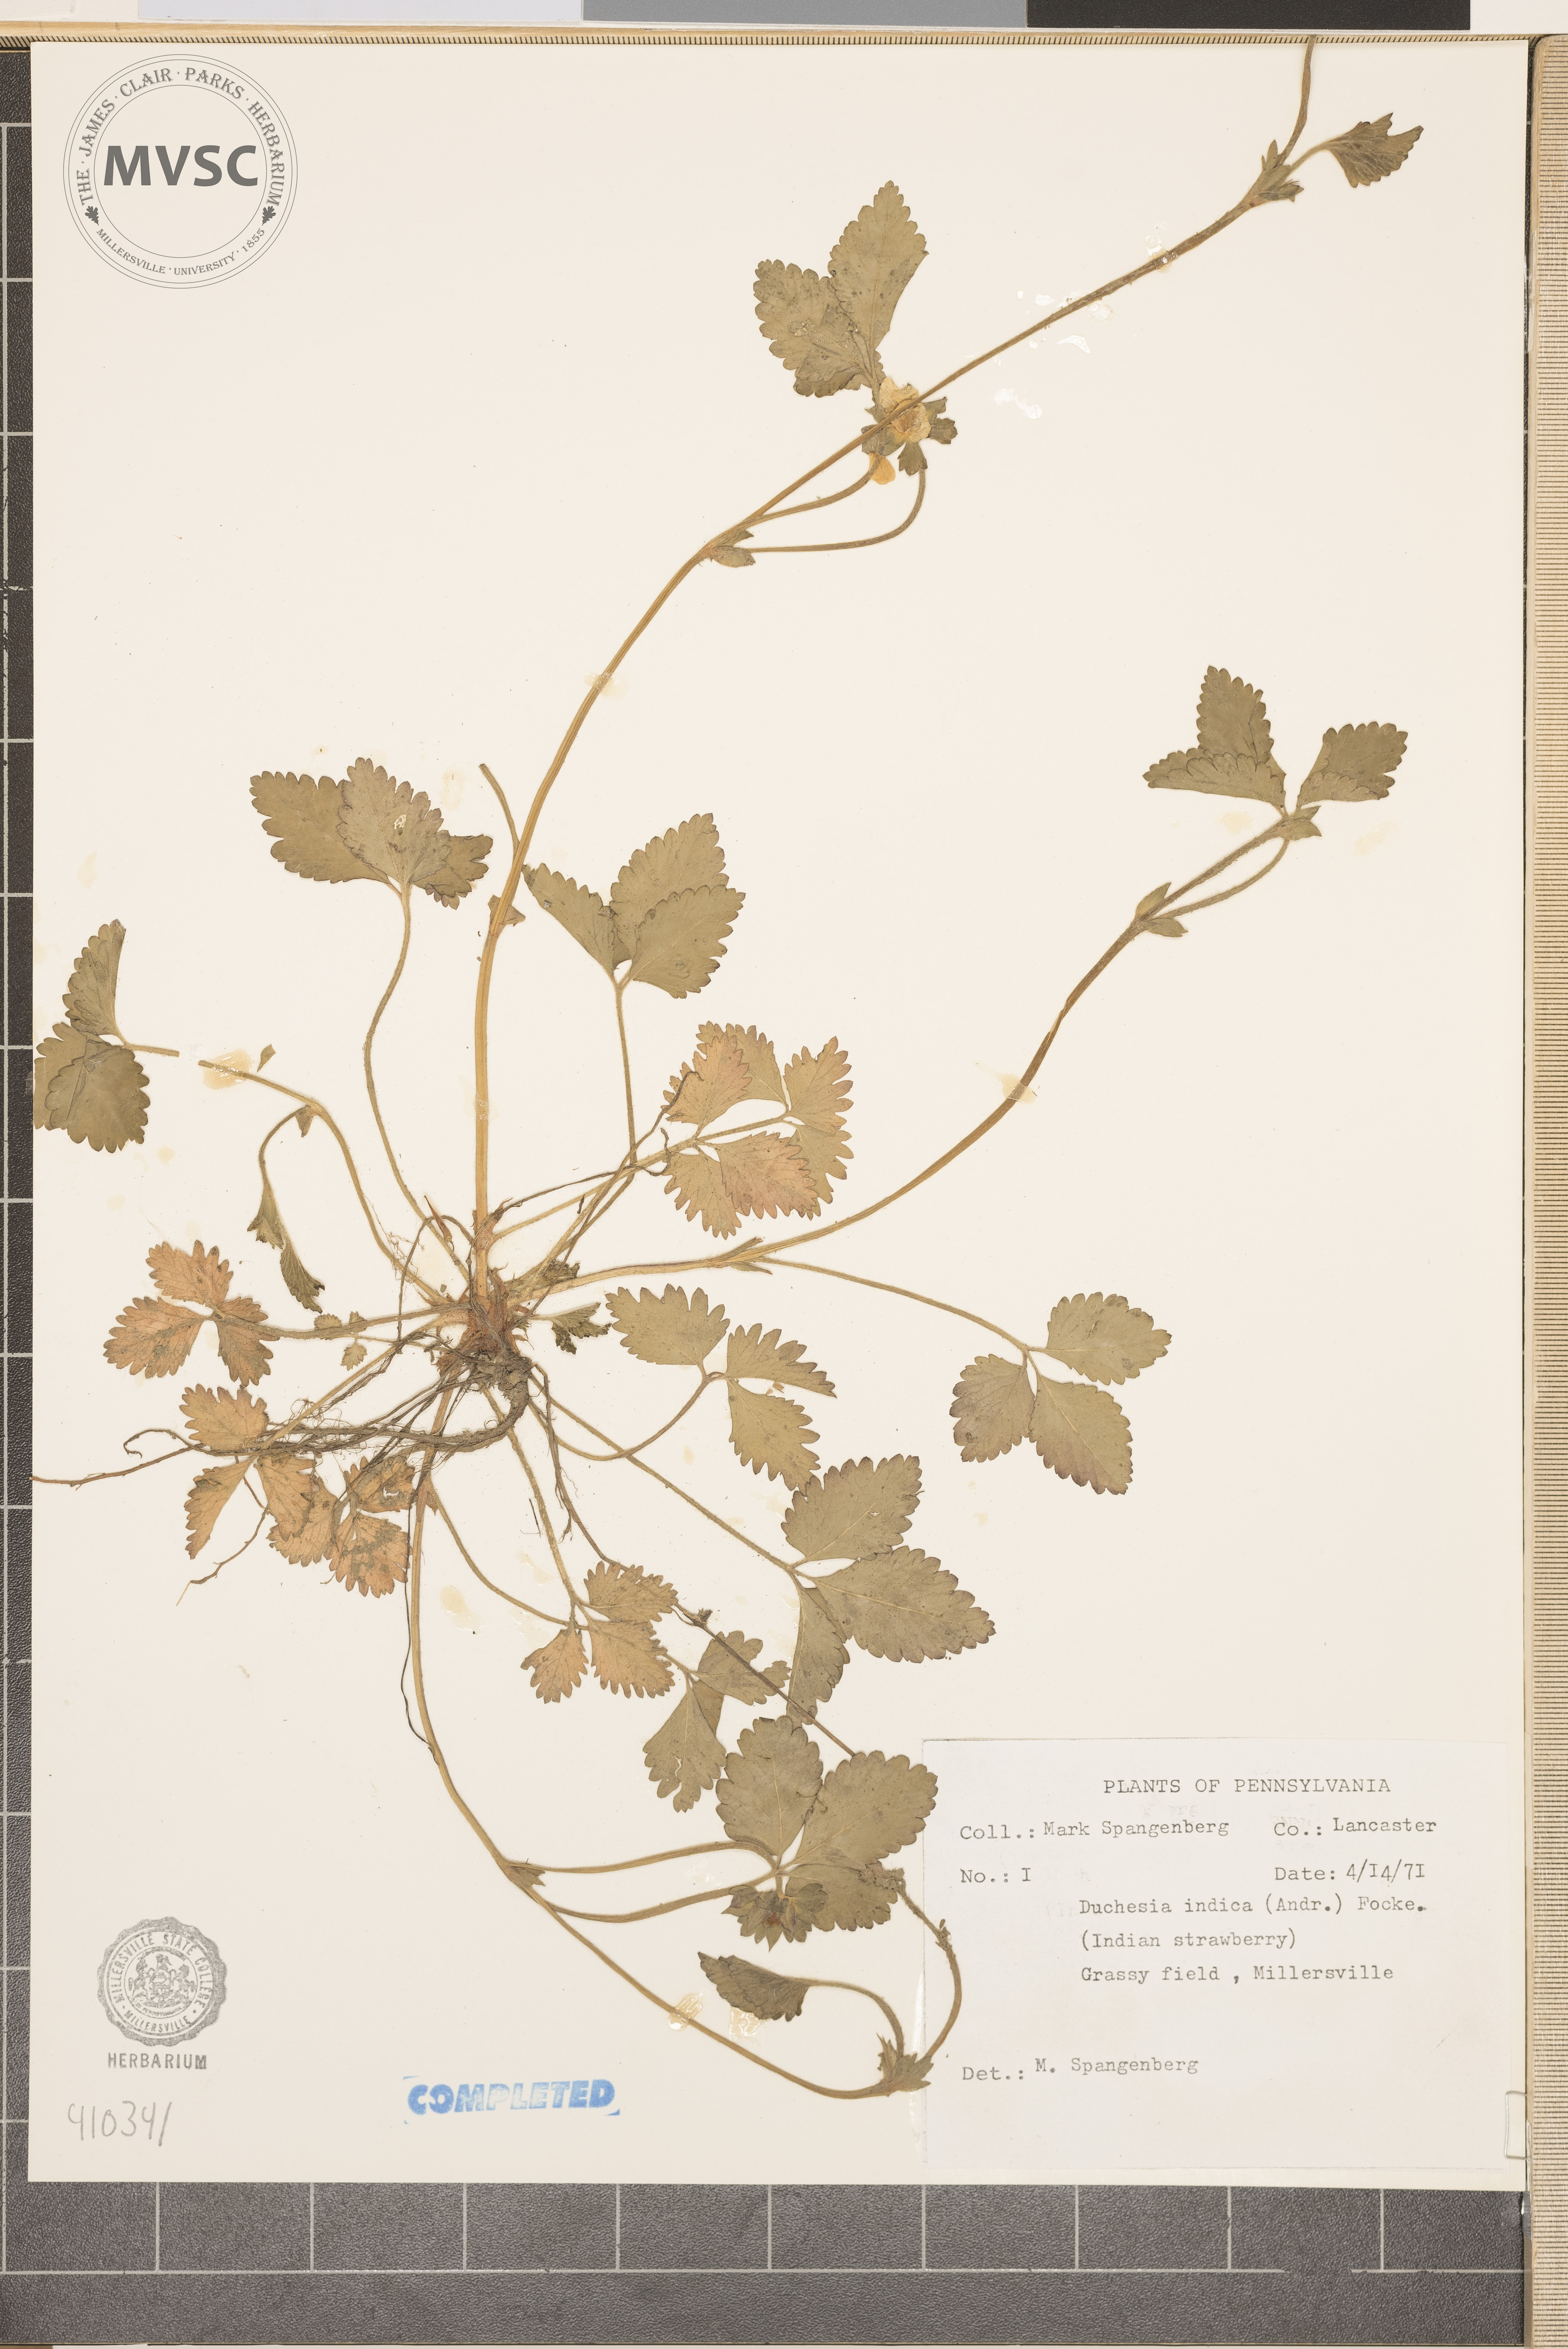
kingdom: Plantae
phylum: Tracheophyta
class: Magnoliopsida
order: Rosales
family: Rosaceae
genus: Potentilla
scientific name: Potentilla indica
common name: Yellow-flowered strawberry
